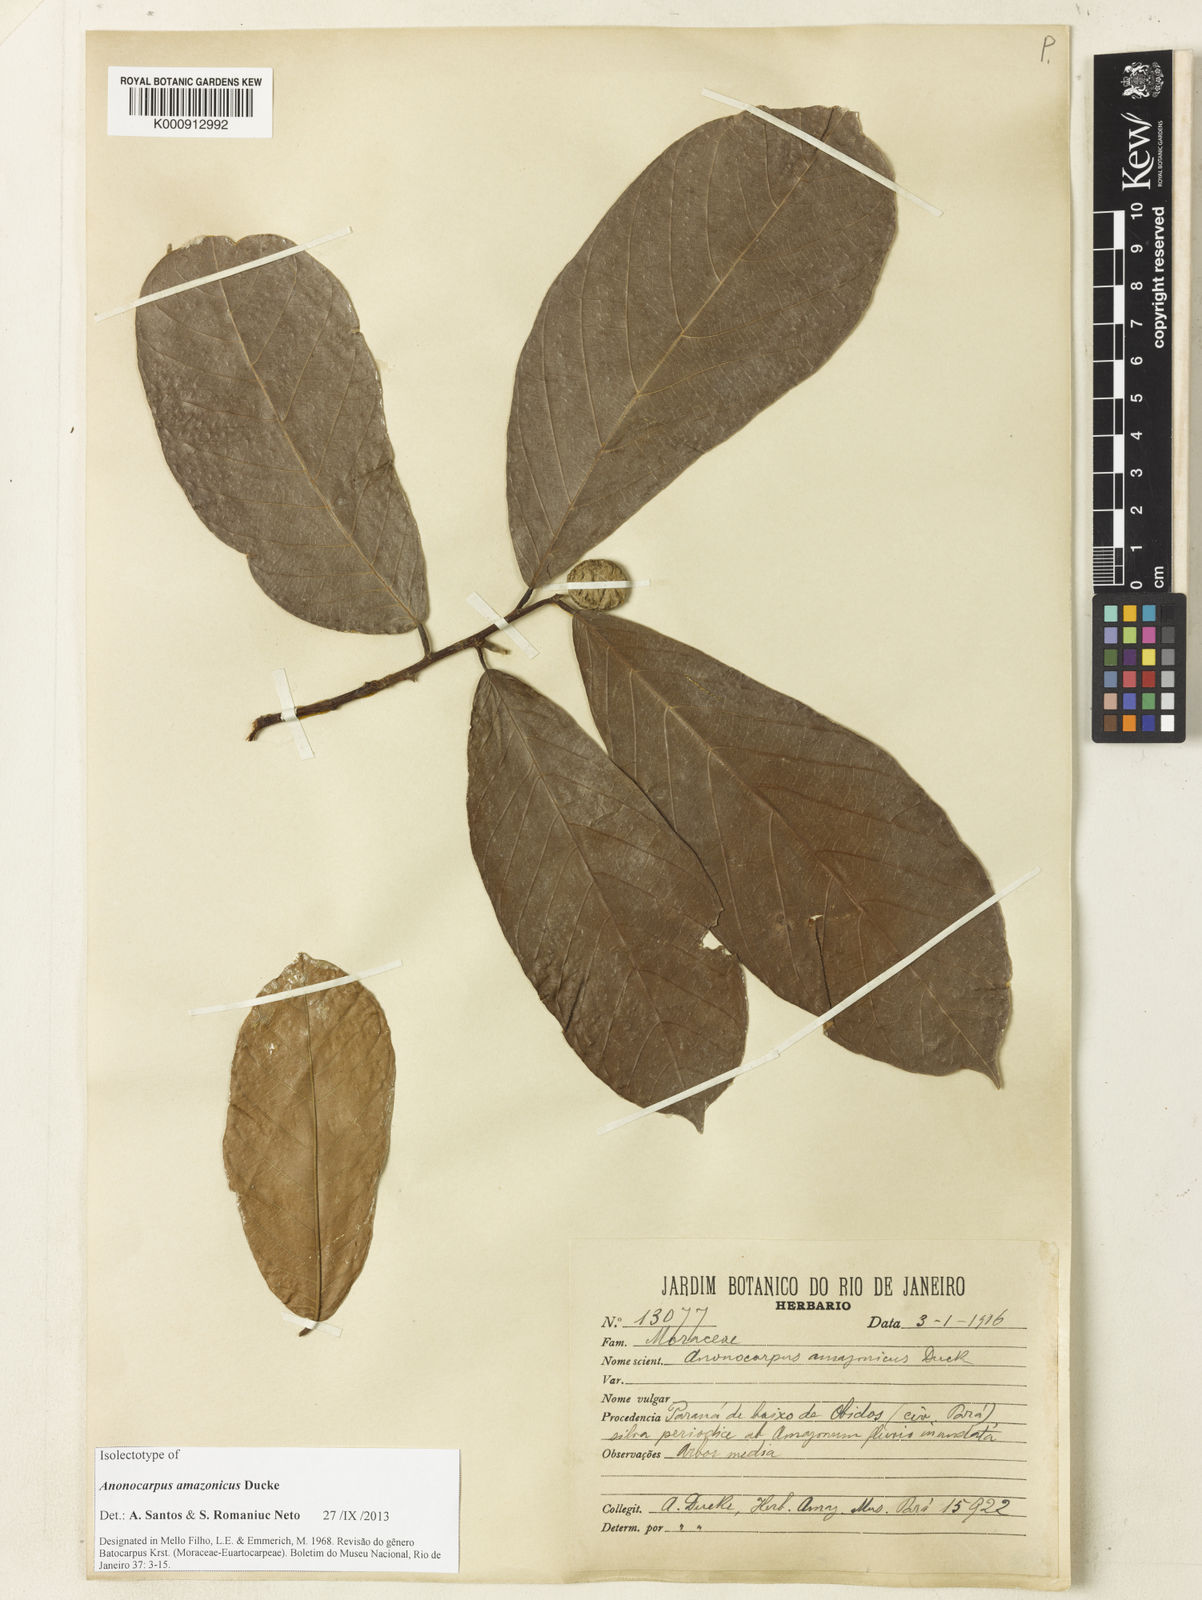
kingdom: Plantae
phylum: Tracheophyta
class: Magnoliopsida
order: Rosales
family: Moraceae
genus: Batocarpus
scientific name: Batocarpus amazonicus
